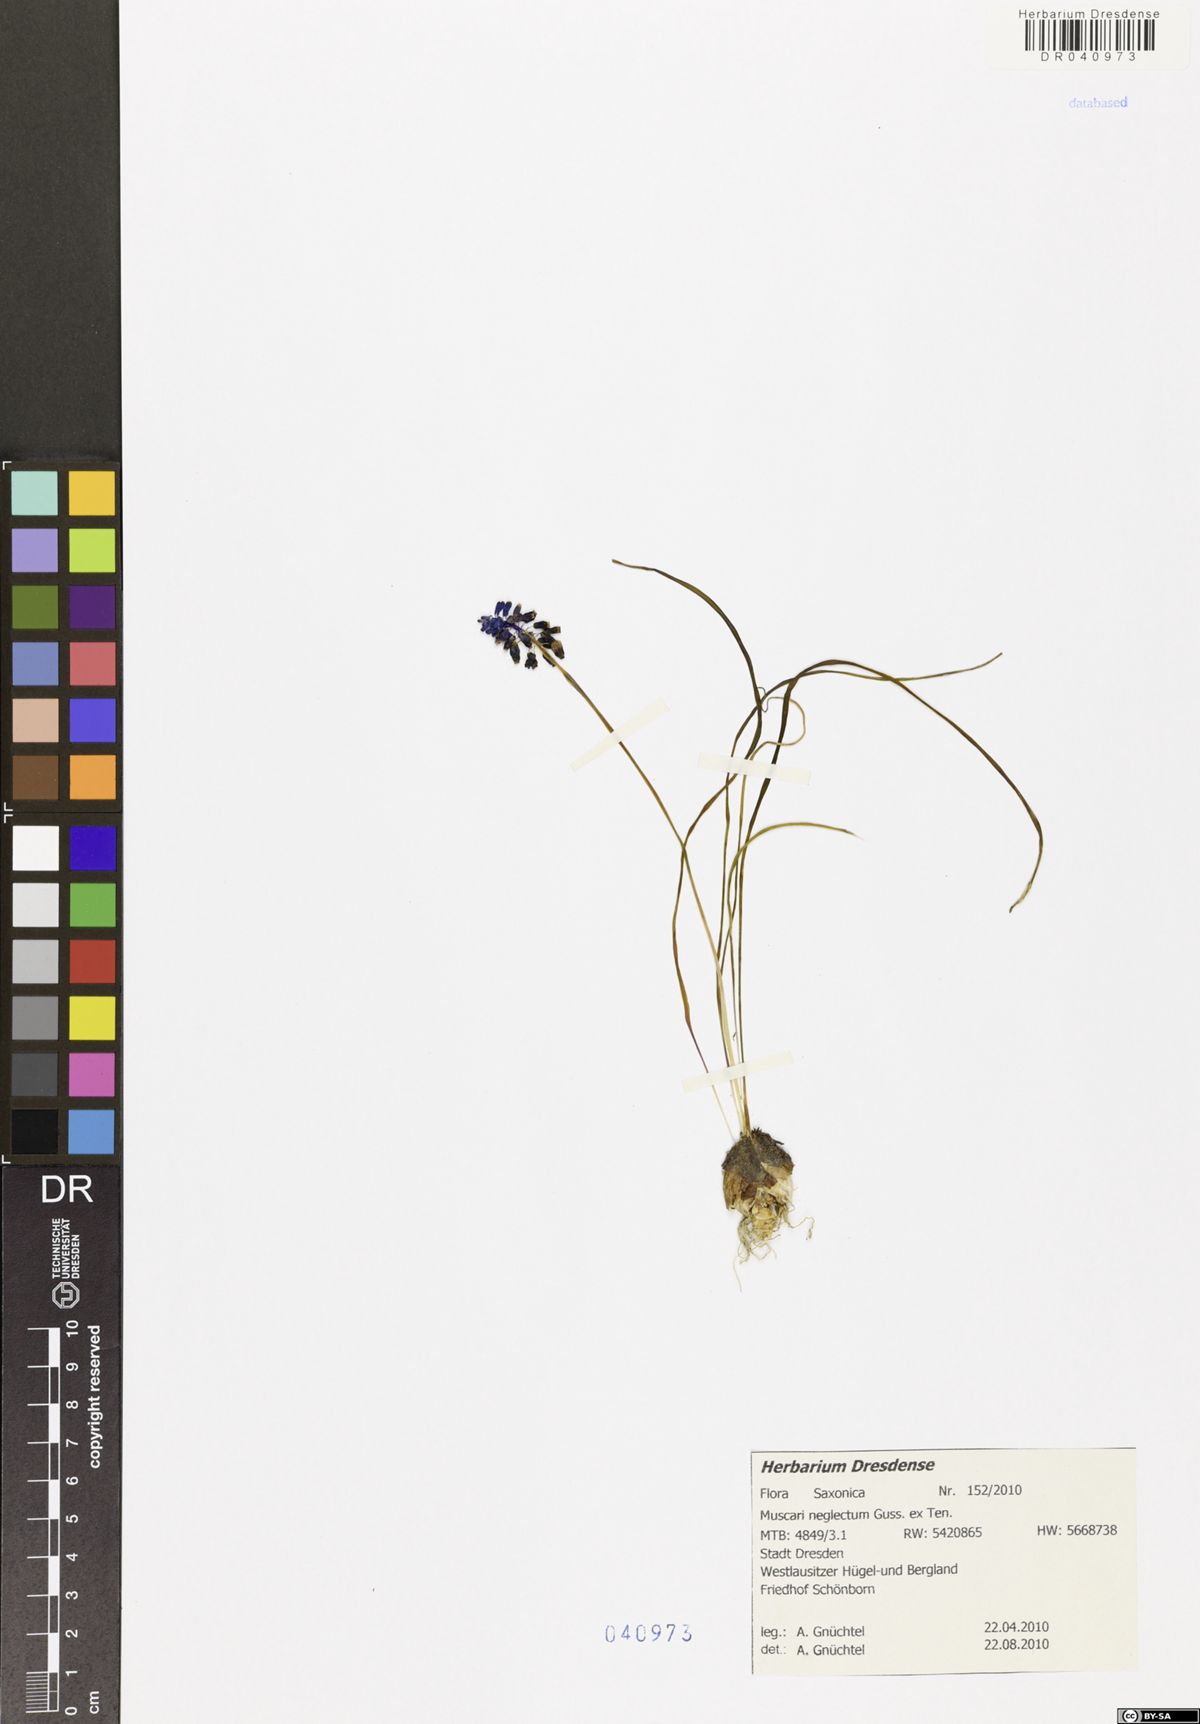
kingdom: Plantae
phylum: Tracheophyta
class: Liliopsida
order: Asparagales
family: Asparagaceae
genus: Muscari
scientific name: Muscari neglectum
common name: Grape-hyacinth
